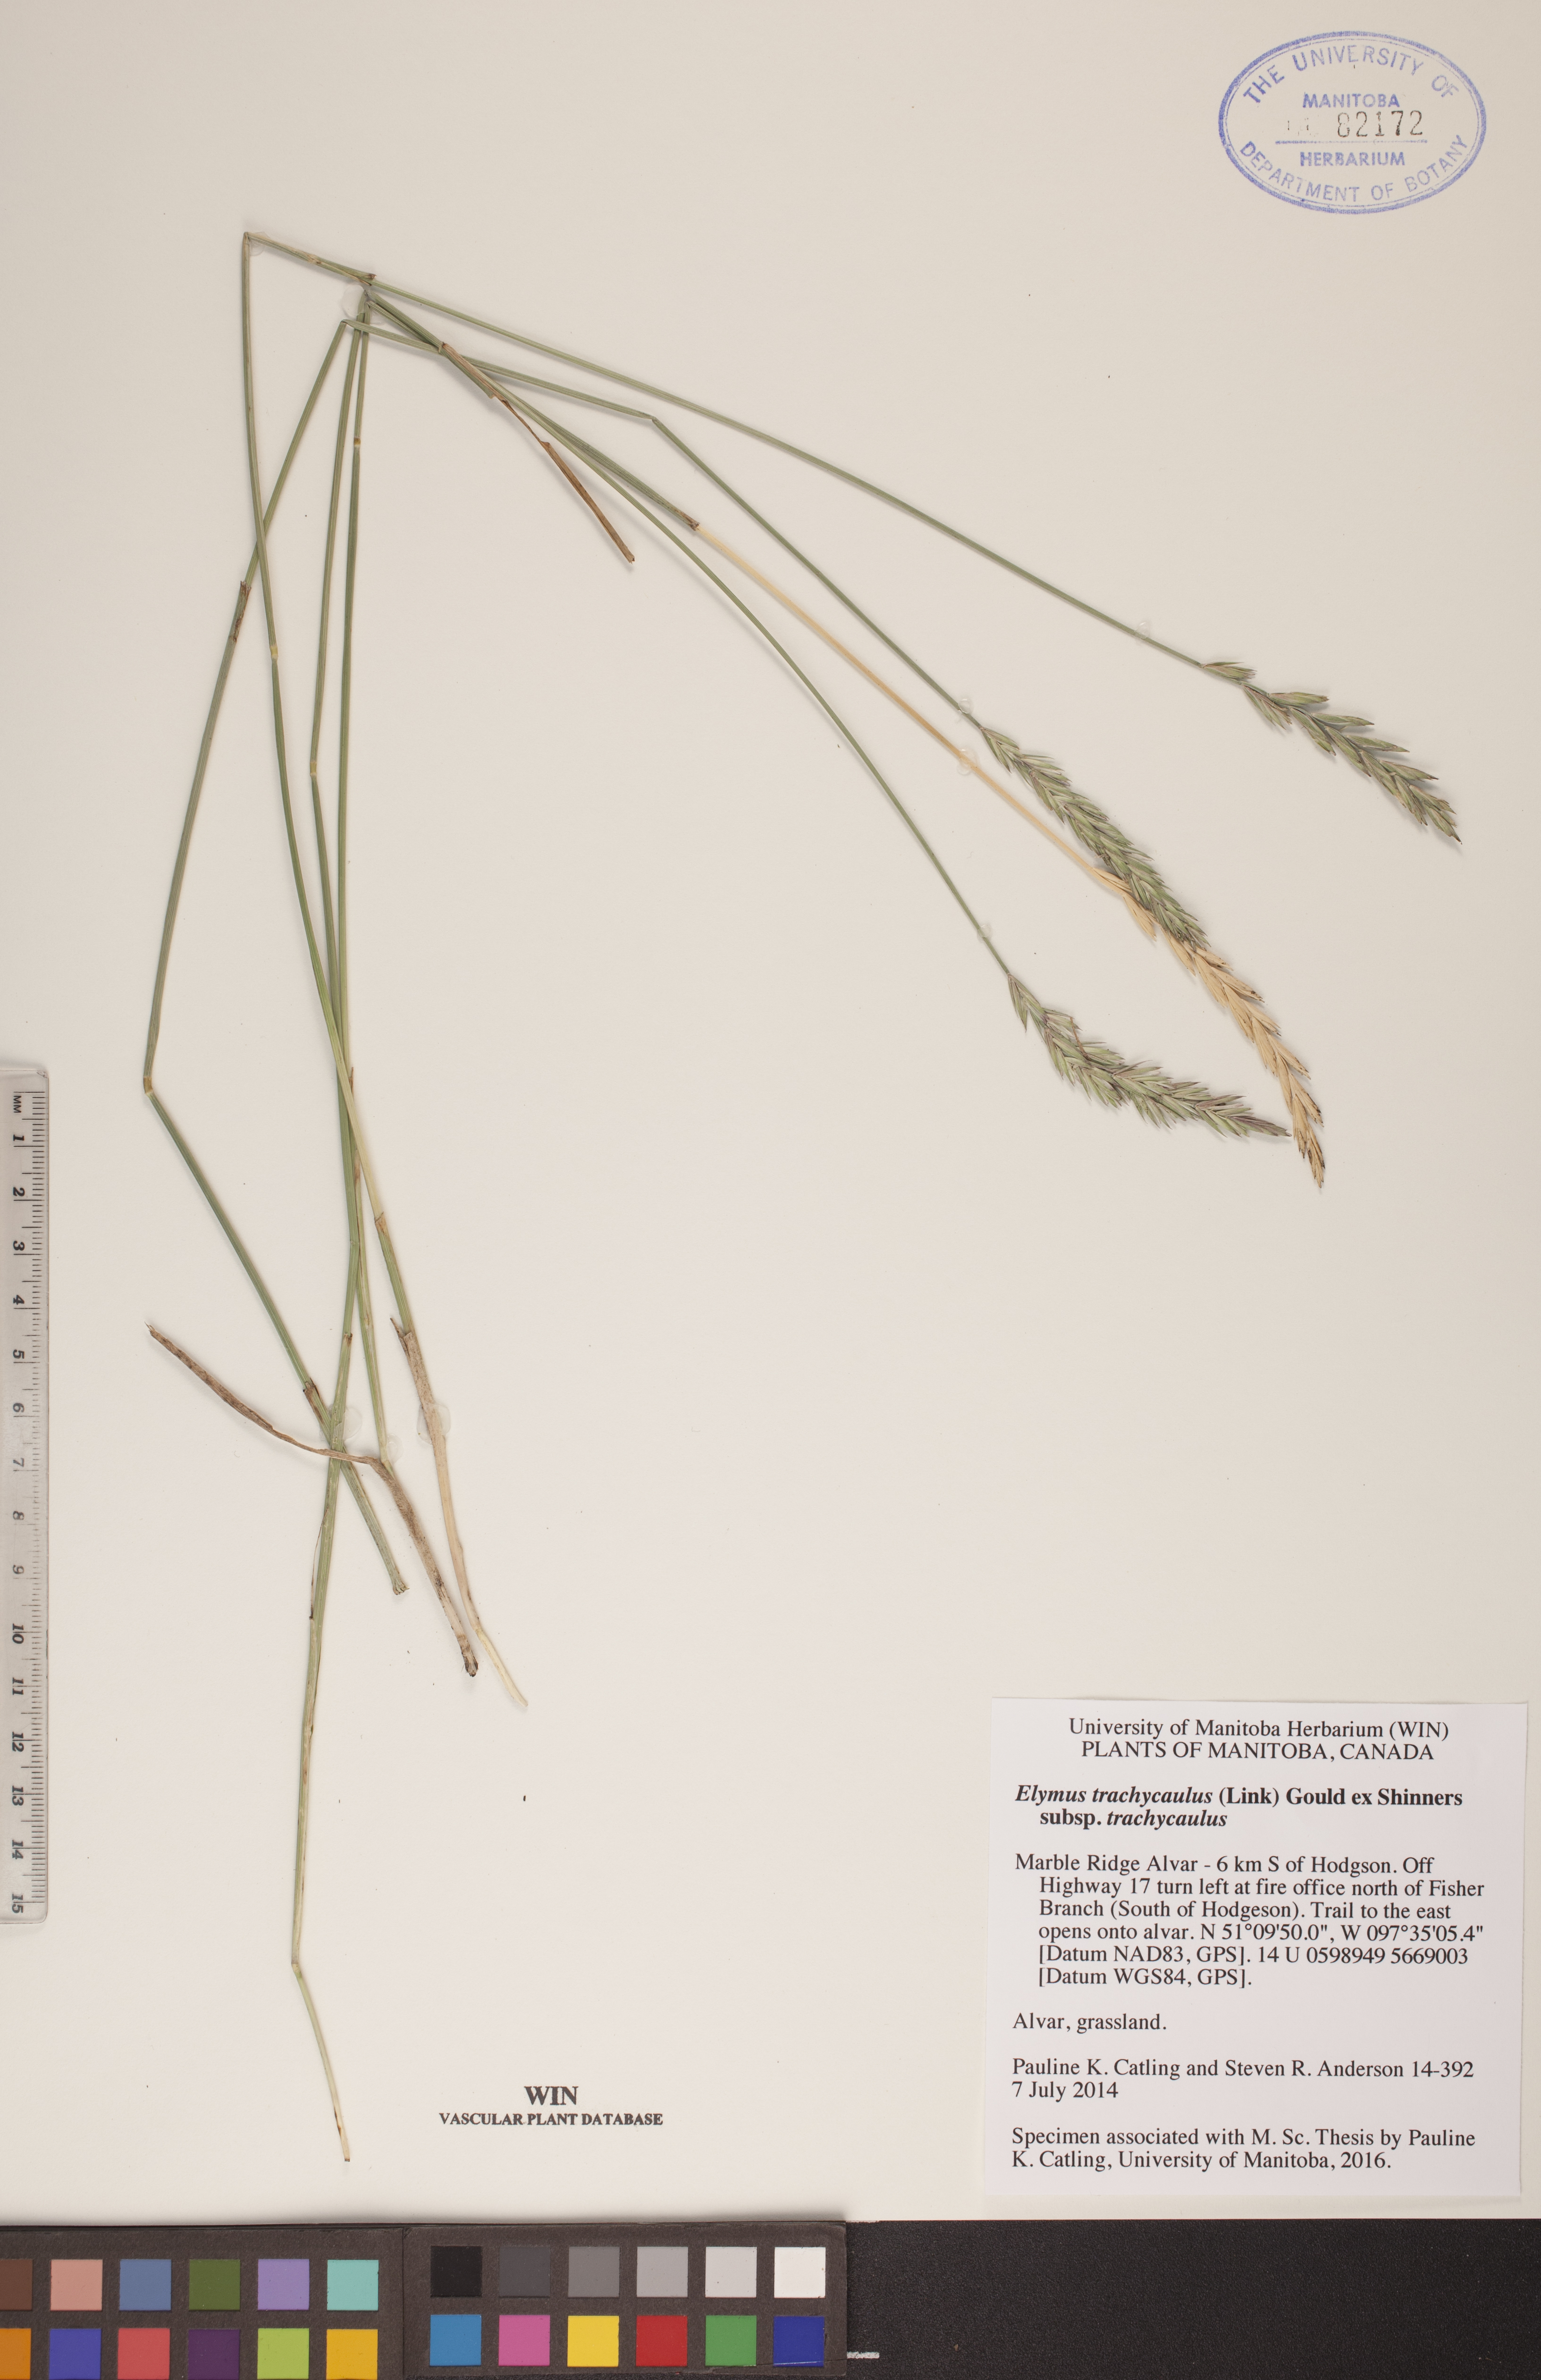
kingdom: Plantae
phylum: Tracheophyta
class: Liliopsida
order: Poales
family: Poaceae
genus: Elymus
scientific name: Elymus violaceus
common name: Arctic wheatgrass
